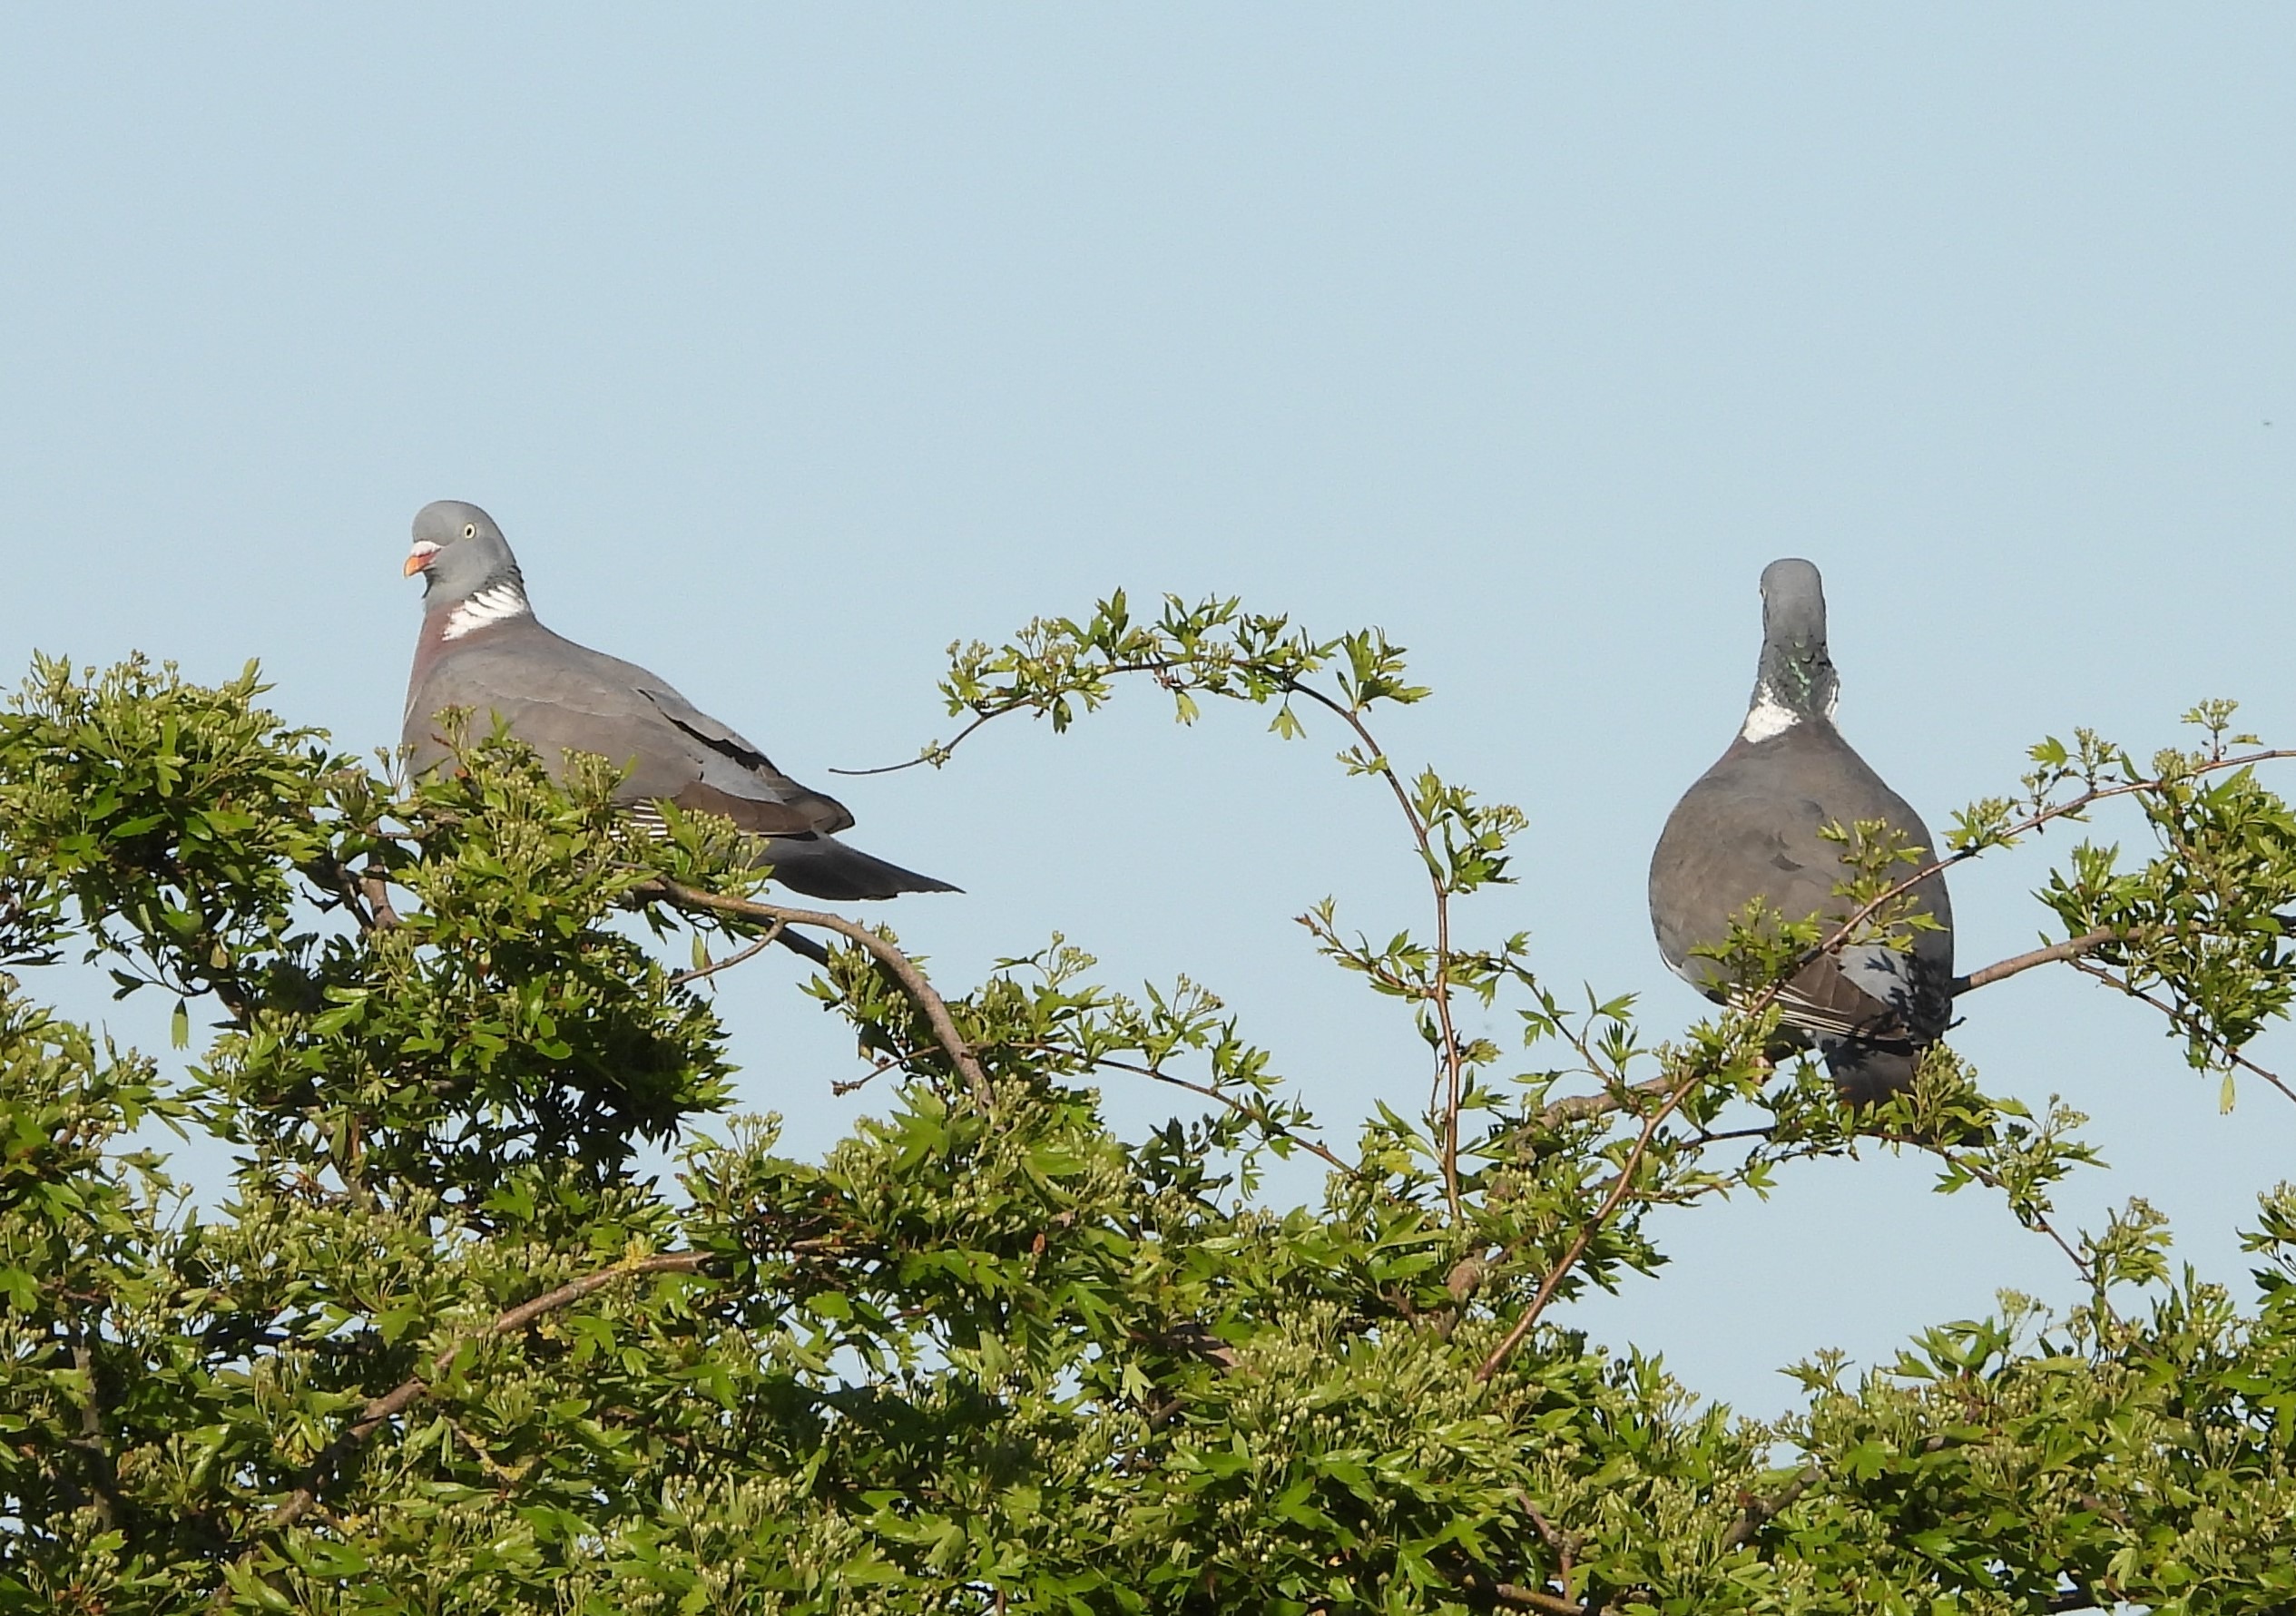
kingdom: Animalia
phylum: Chordata
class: Aves
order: Columbiformes
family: Columbidae
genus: Columba
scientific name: Columba palumbus
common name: Ringdue
